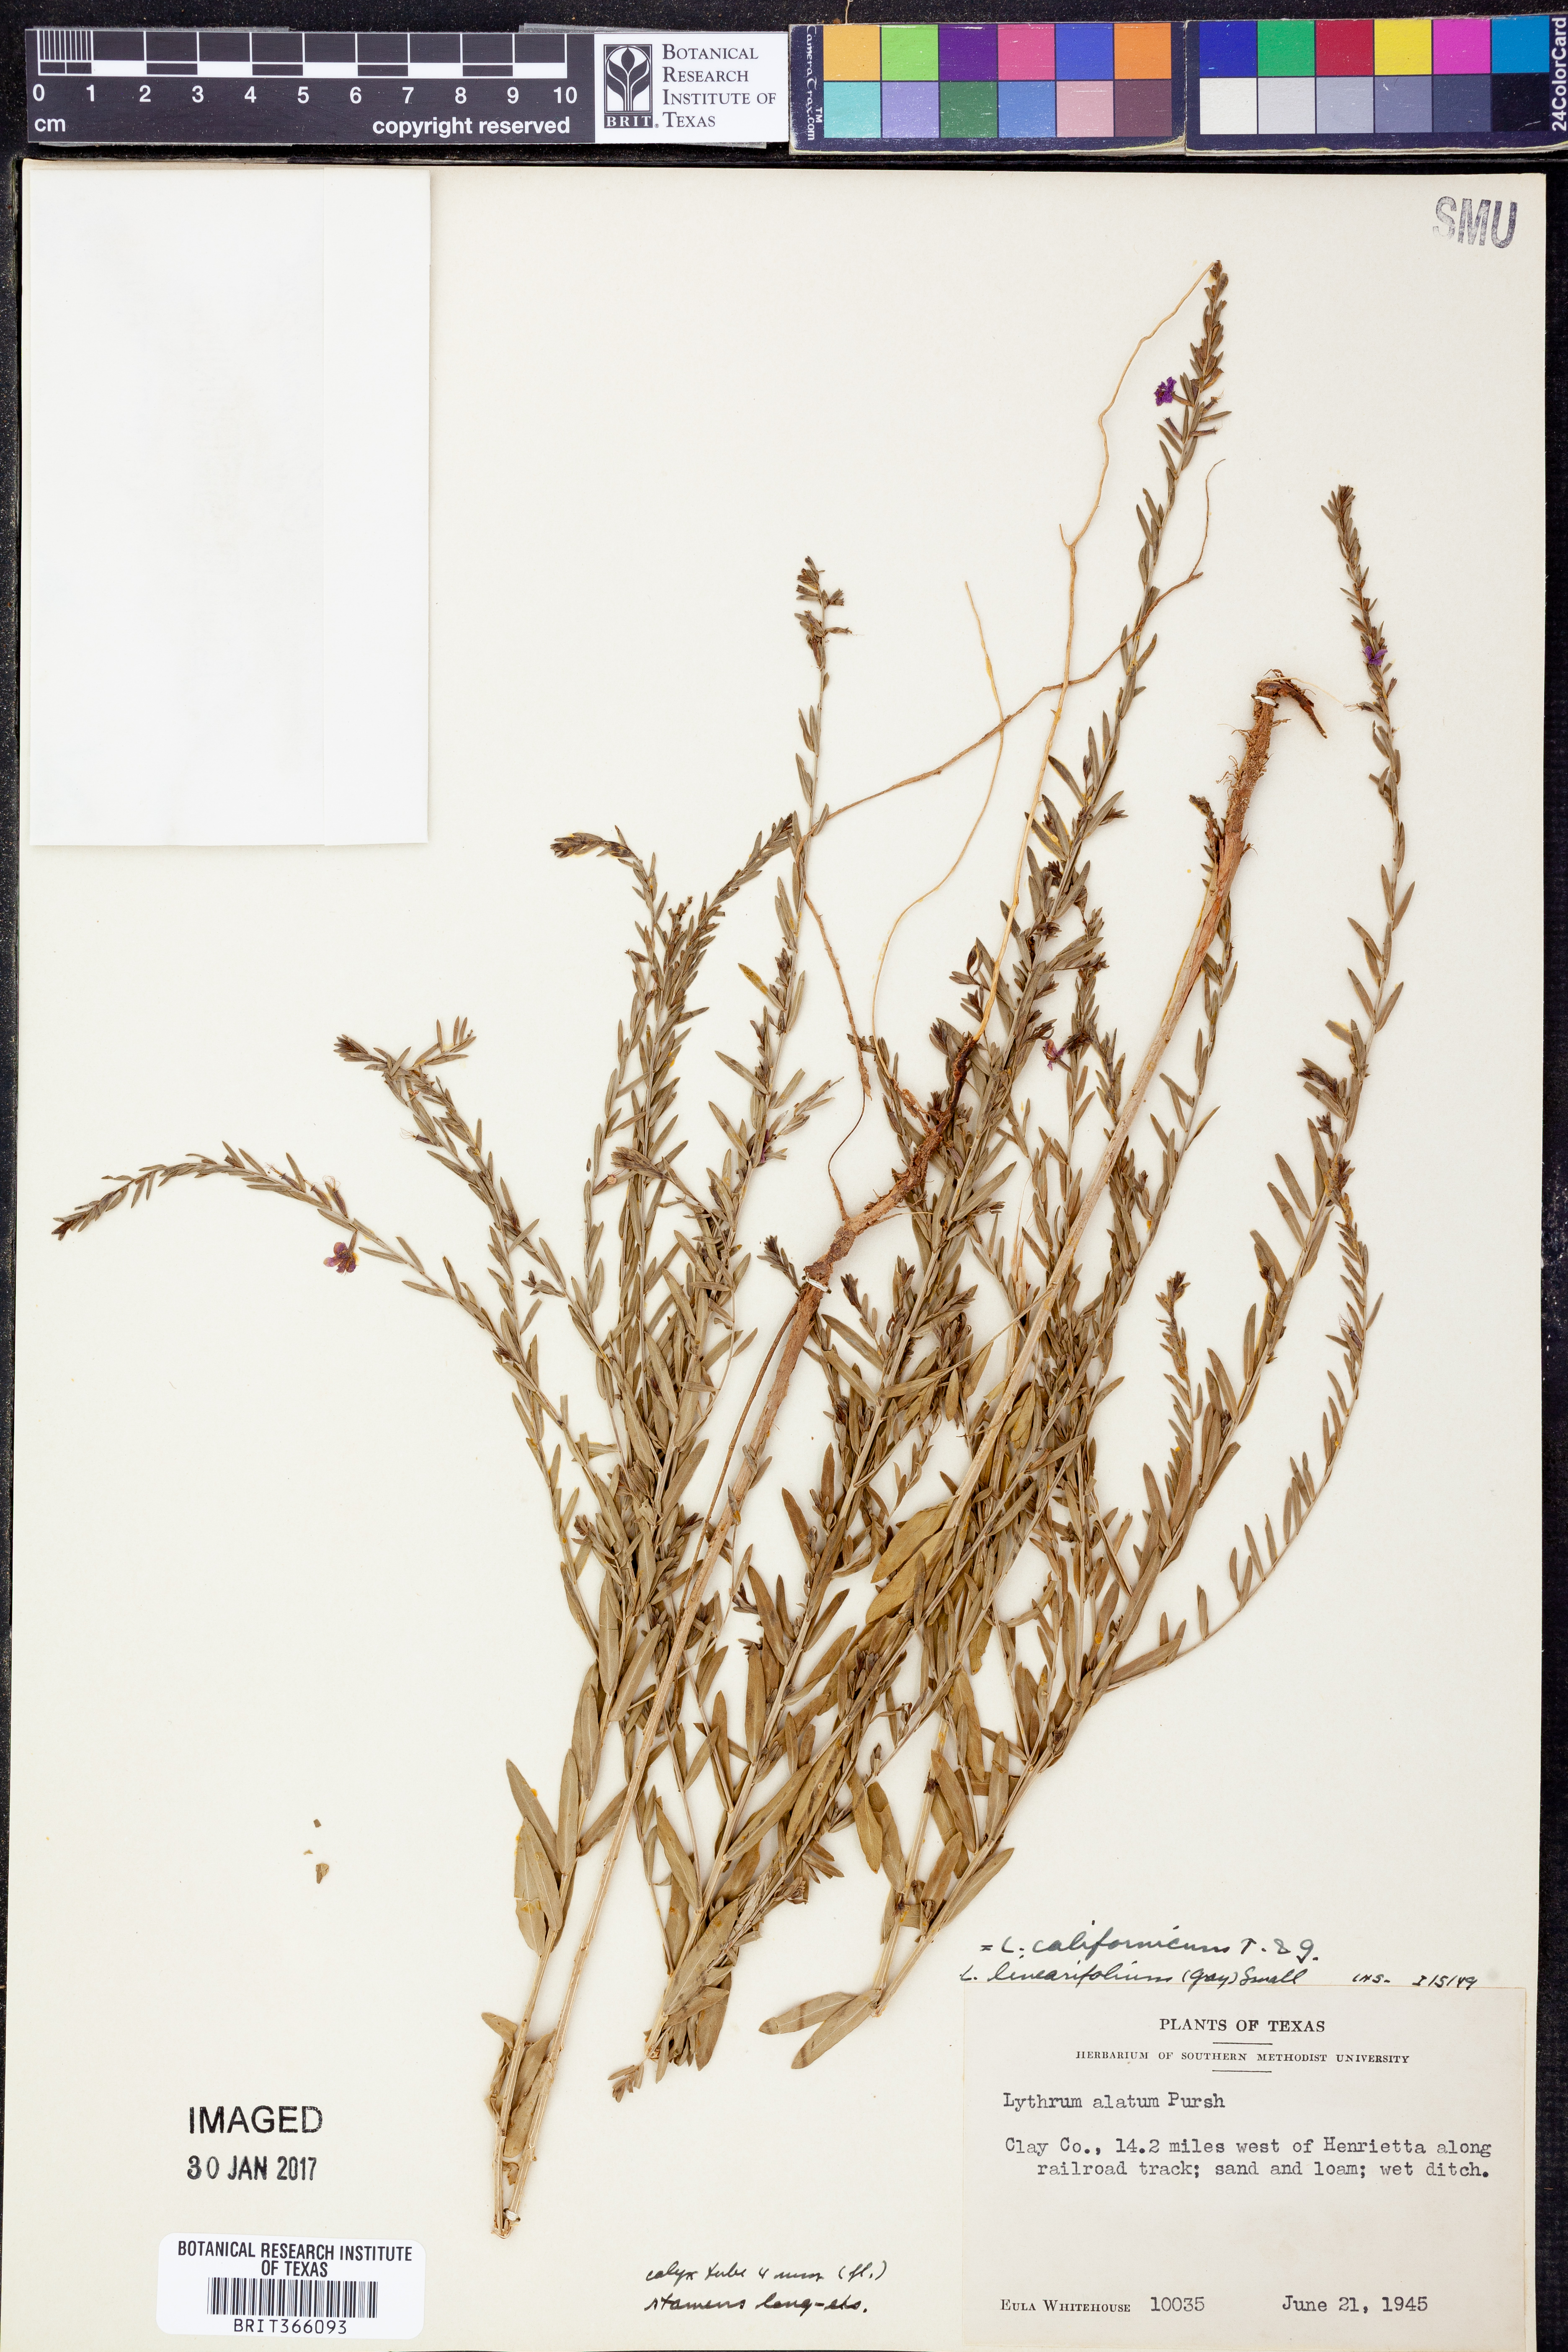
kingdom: Plantae
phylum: Tracheophyta
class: Magnoliopsida
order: Myrtales
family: Lythraceae
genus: Lythrum
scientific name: Lythrum californicum
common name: California loosestrife
